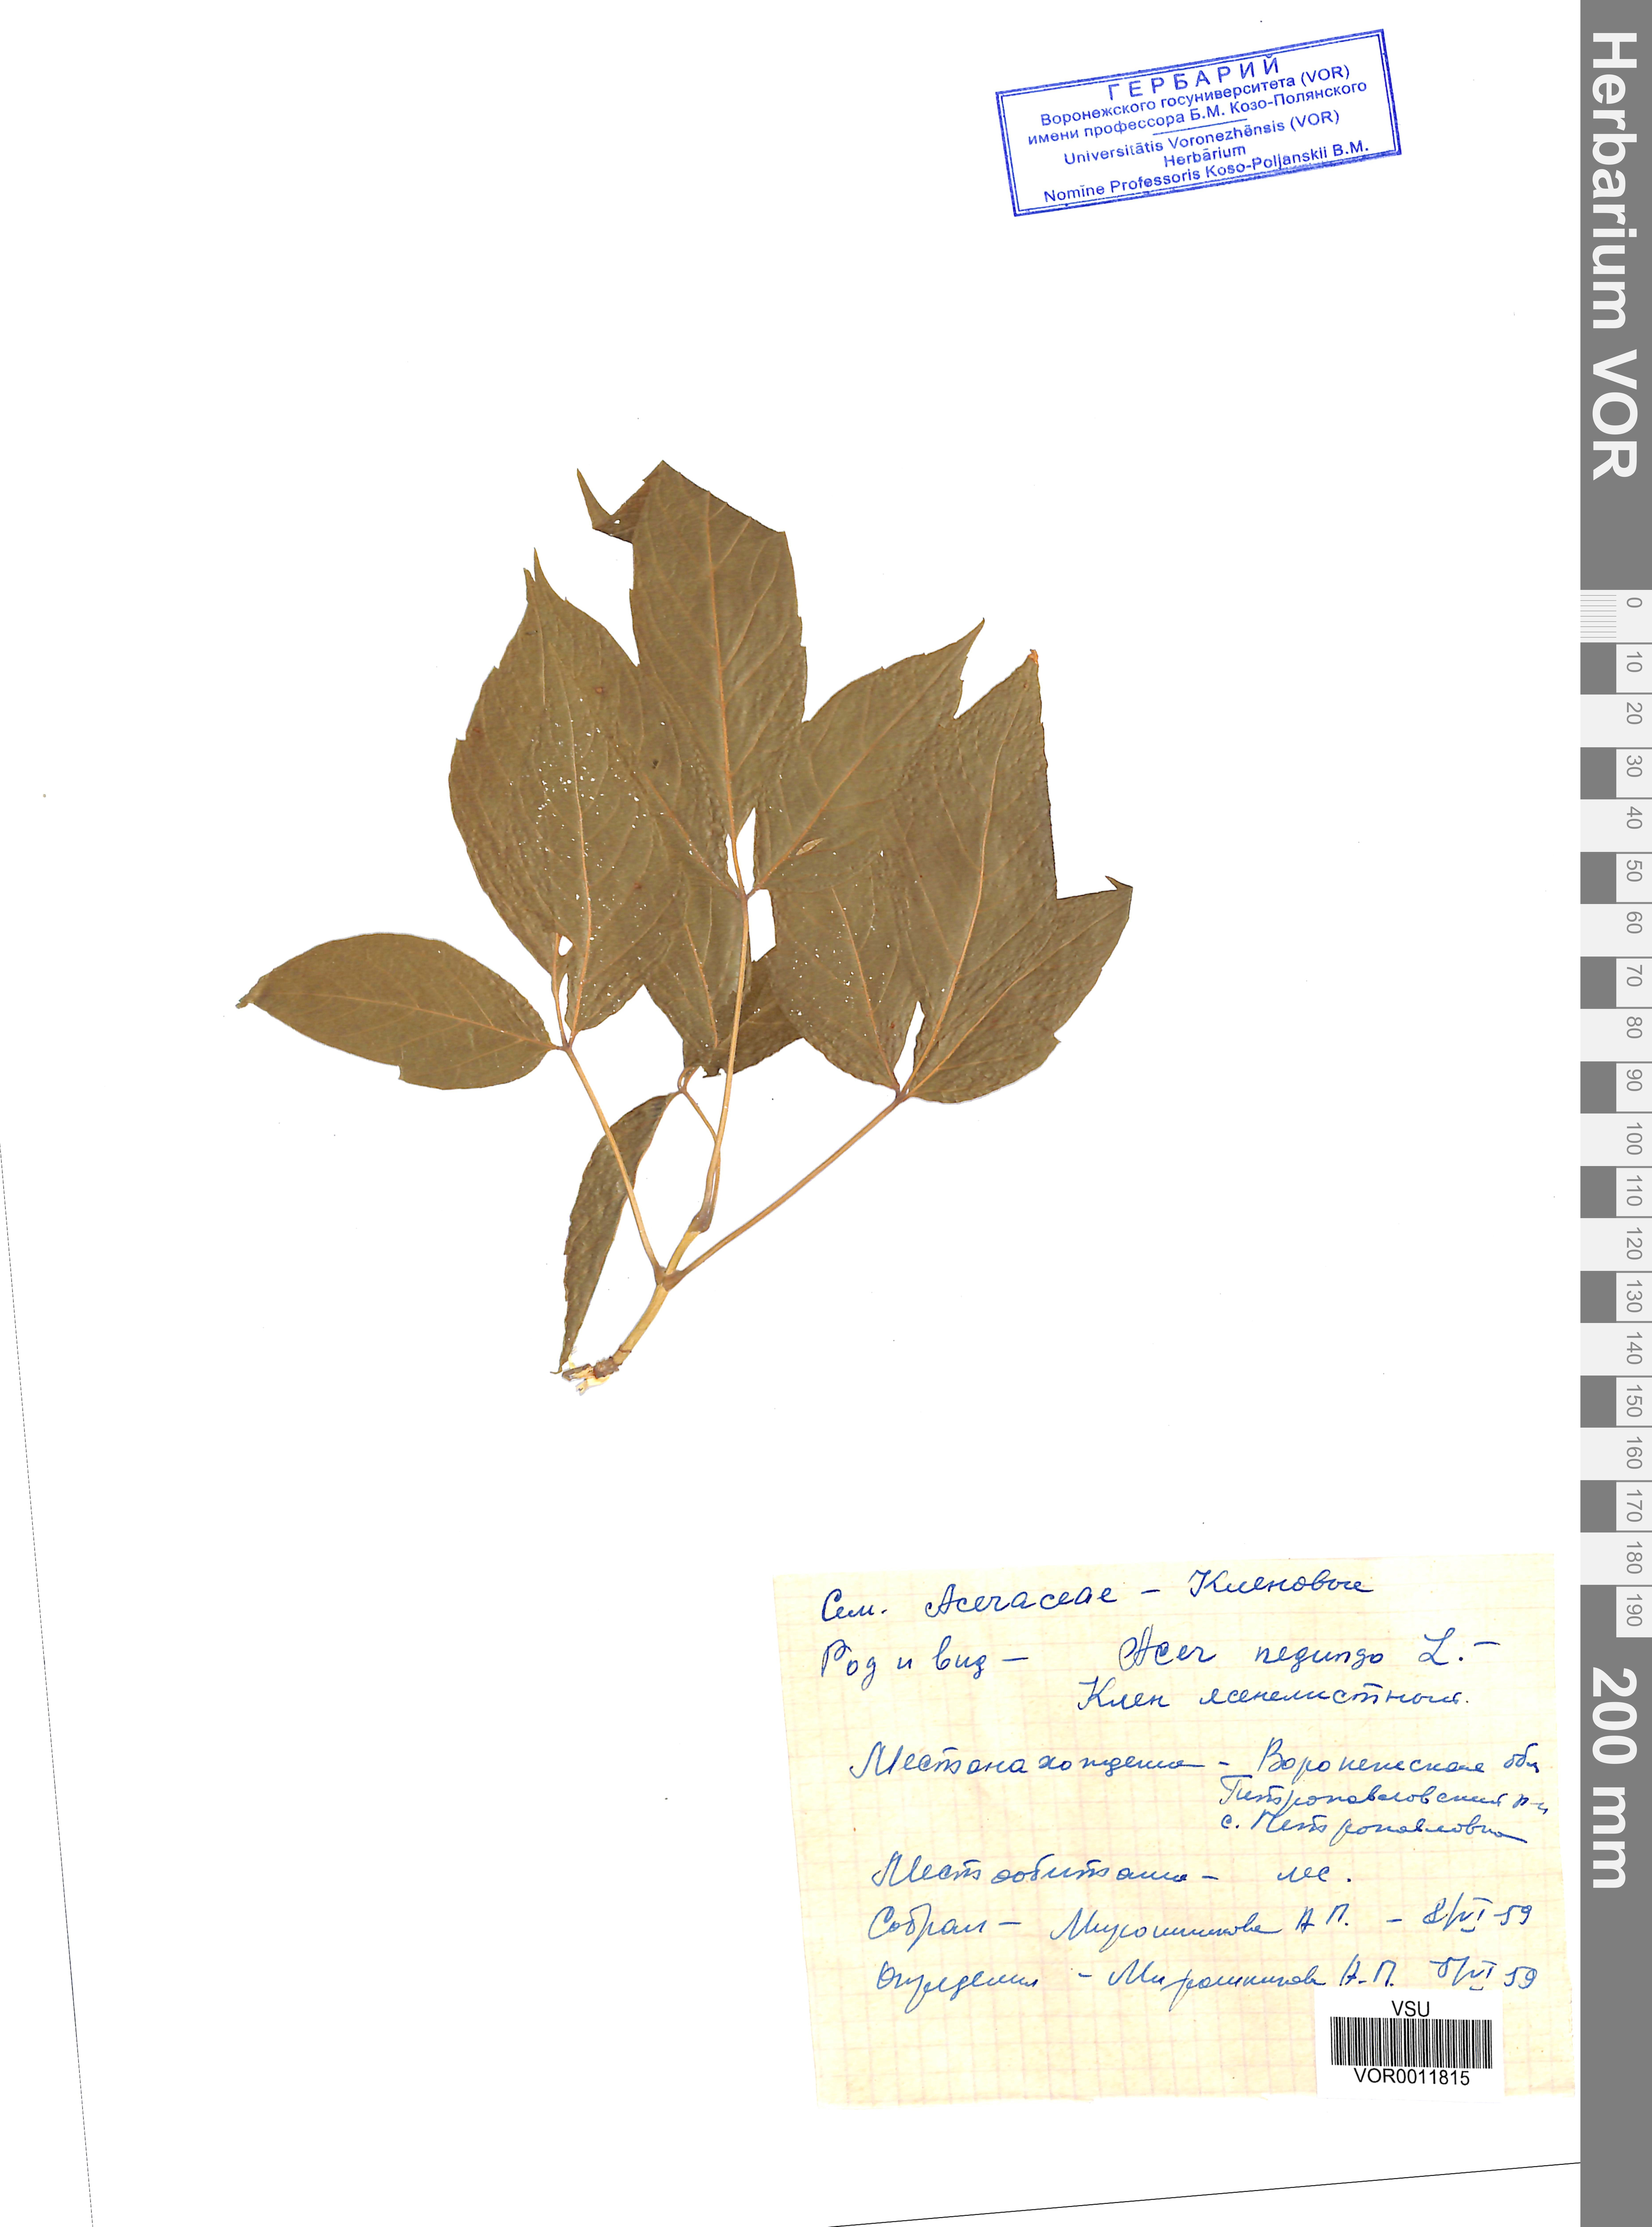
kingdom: Plantae
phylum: Tracheophyta
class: Magnoliopsida
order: Sapindales
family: Sapindaceae
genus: Acer
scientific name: Acer negundo
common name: Ashleaf maple
